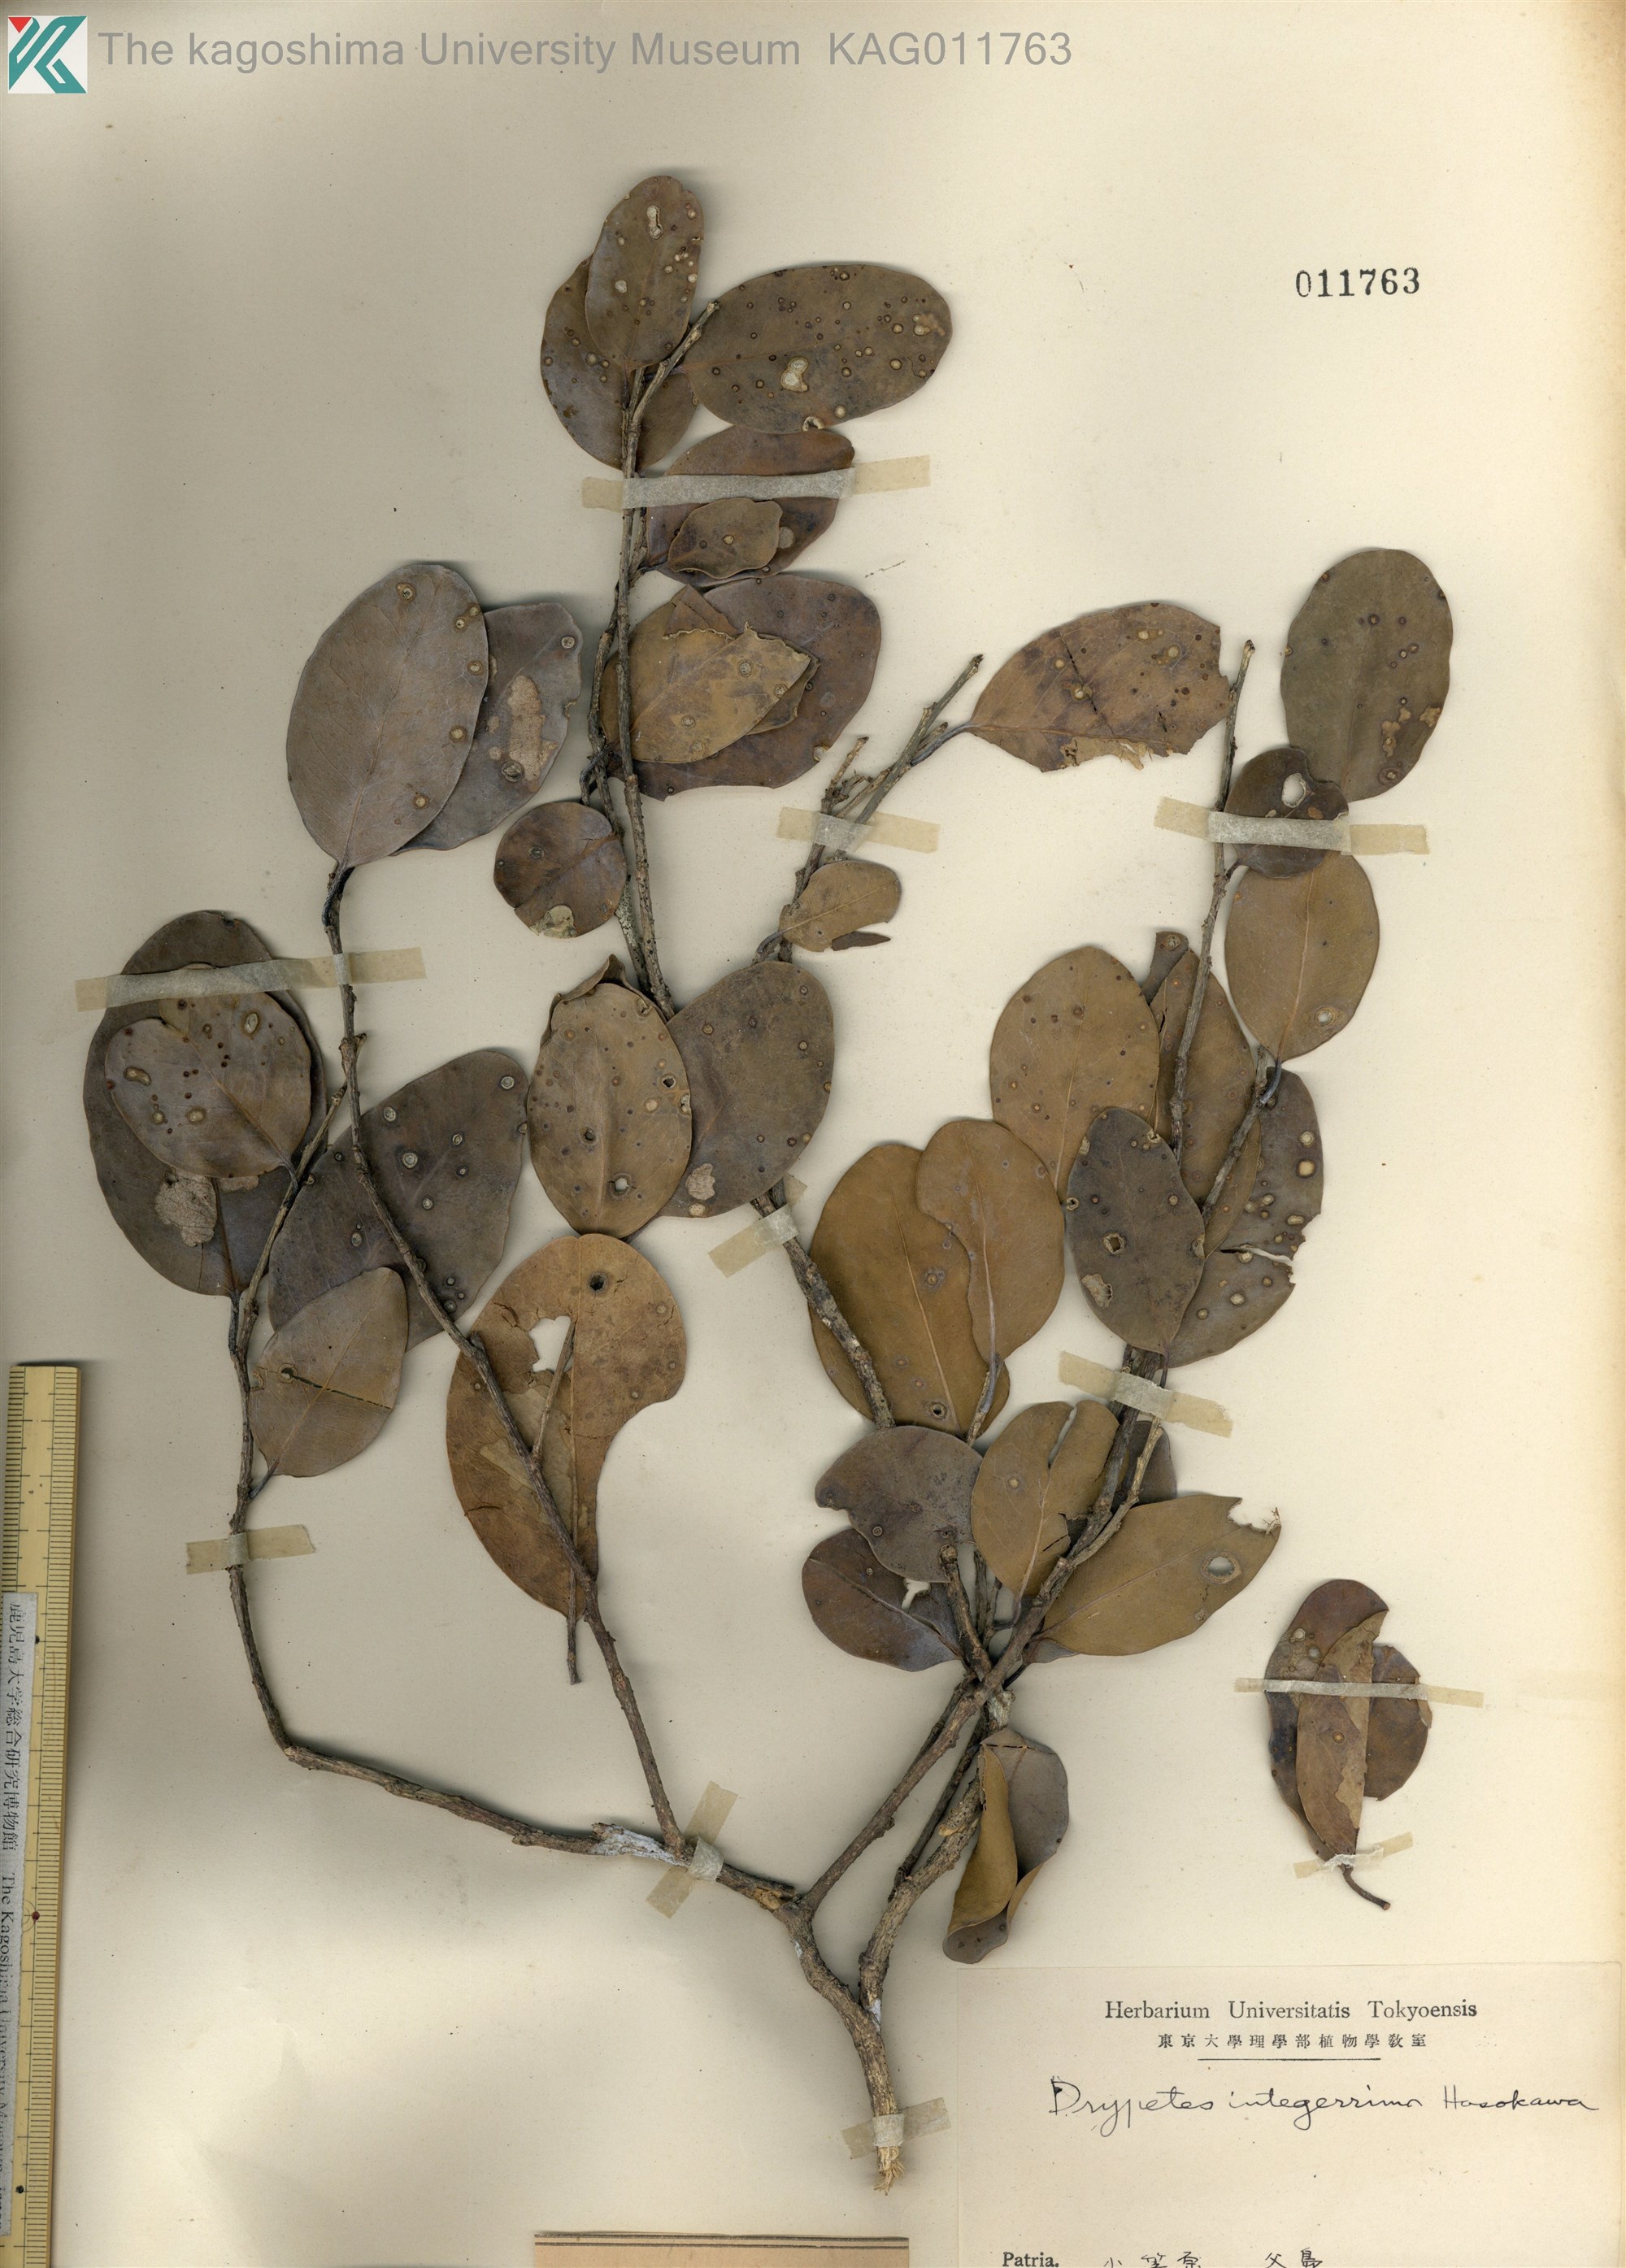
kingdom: Plantae
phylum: Tracheophyta
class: Magnoliopsida
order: Malpighiales
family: Putranjivaceae
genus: Drypetes
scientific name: Drypetes integerrima
